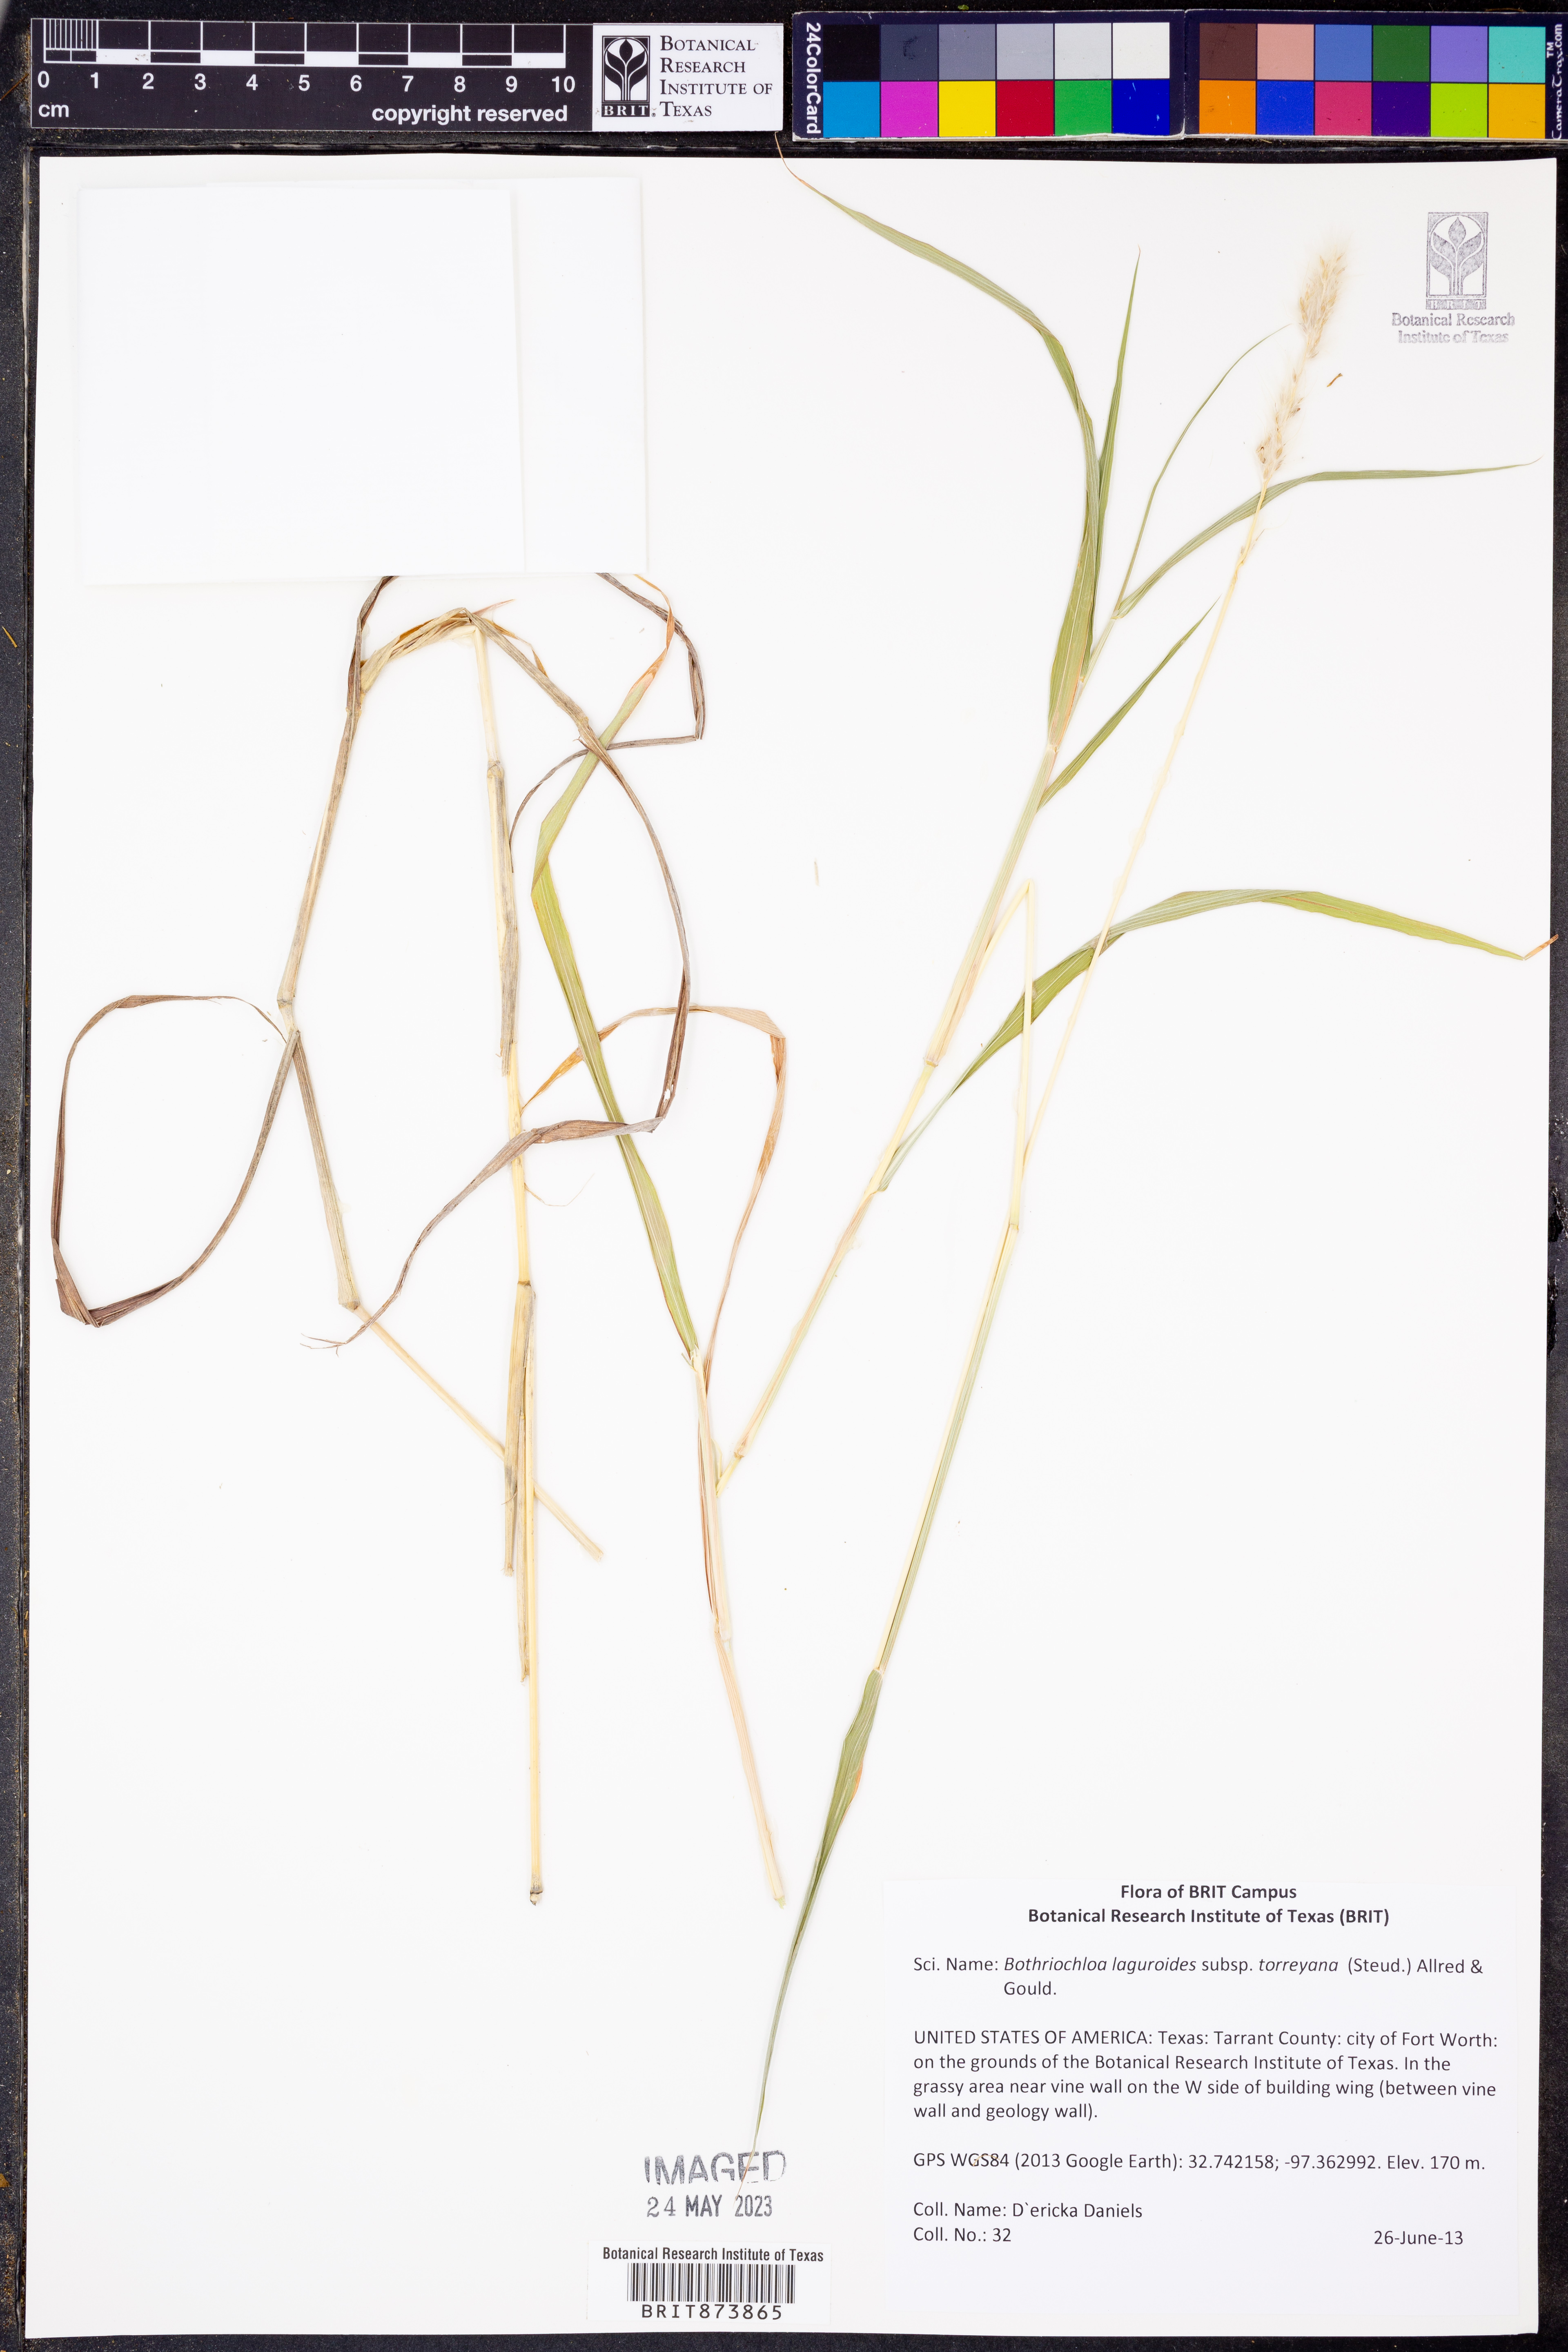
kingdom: Plantae
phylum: Tracheophyta
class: Liliopsida
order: Poales
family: Poaceae
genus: Bothriochloa
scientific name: Bothriochloa torreyana
